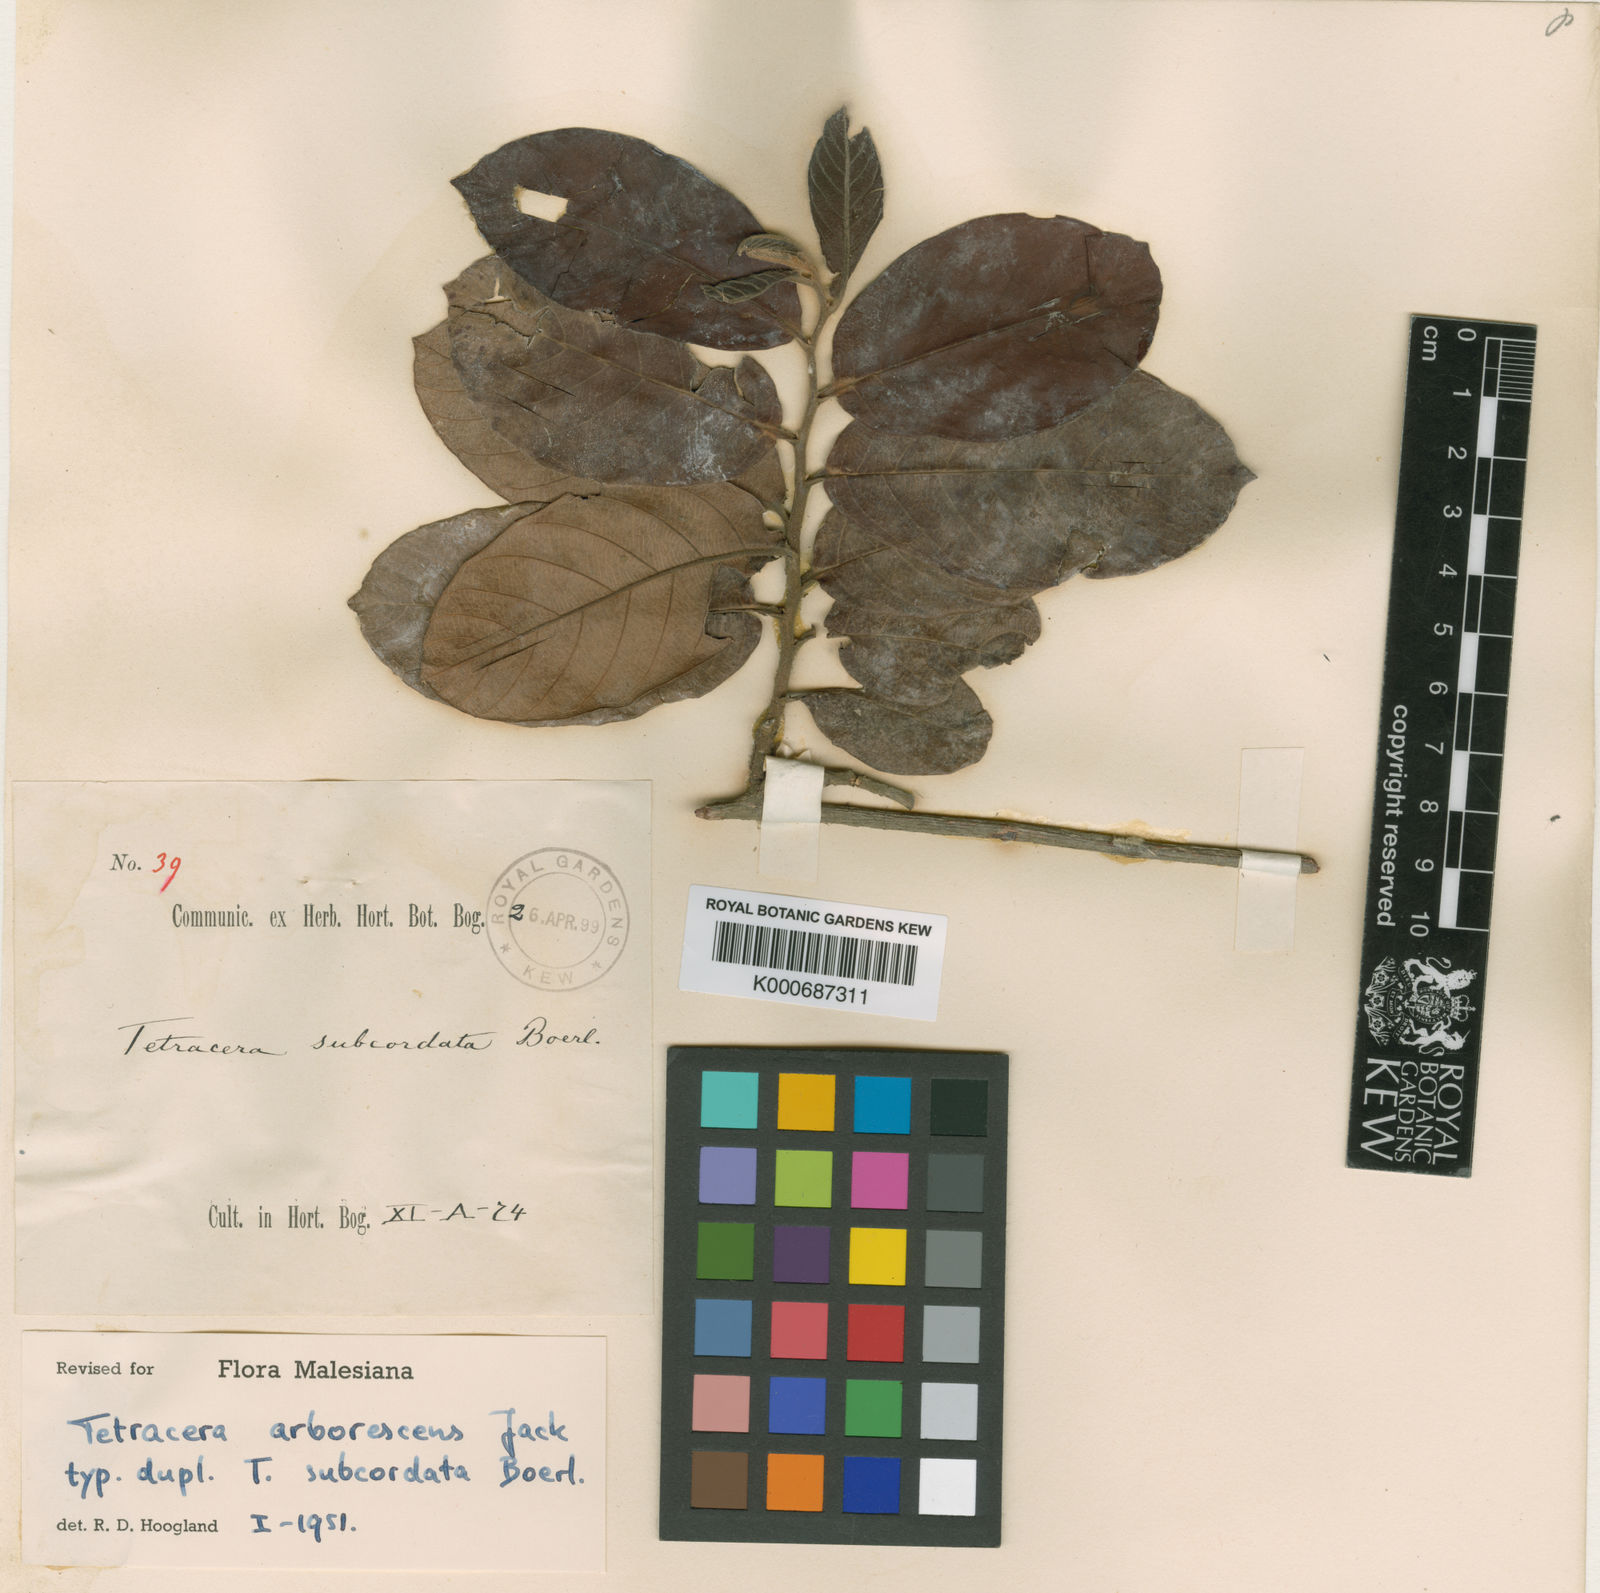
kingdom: Plantae
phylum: Tracheophyta
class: Magnoliopsida
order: Dilleniales
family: Dilleniaceae
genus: Tetracera
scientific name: Tetracera arborescens
